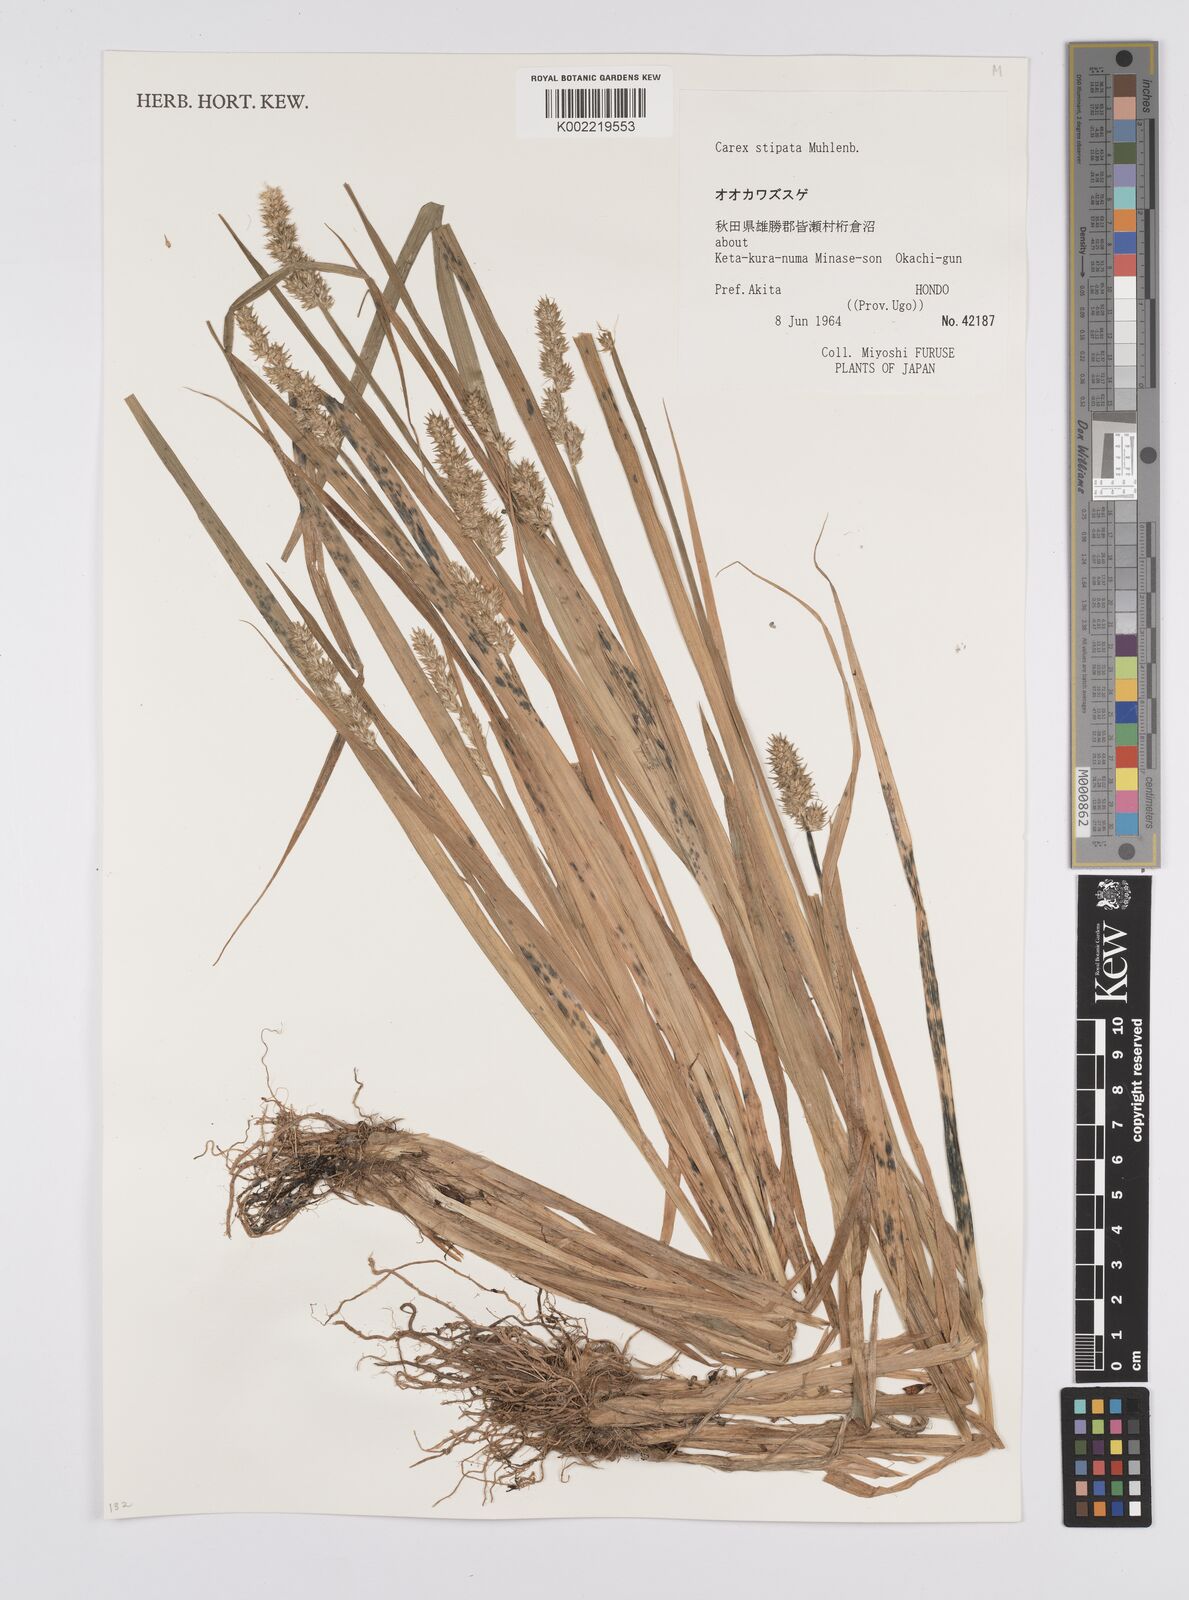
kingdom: Plantae
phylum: Tracheophyta
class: Liliopsida
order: Poales
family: Cyperaceae
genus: Carex
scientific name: Carex stipata
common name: Awl-fruited sedge
